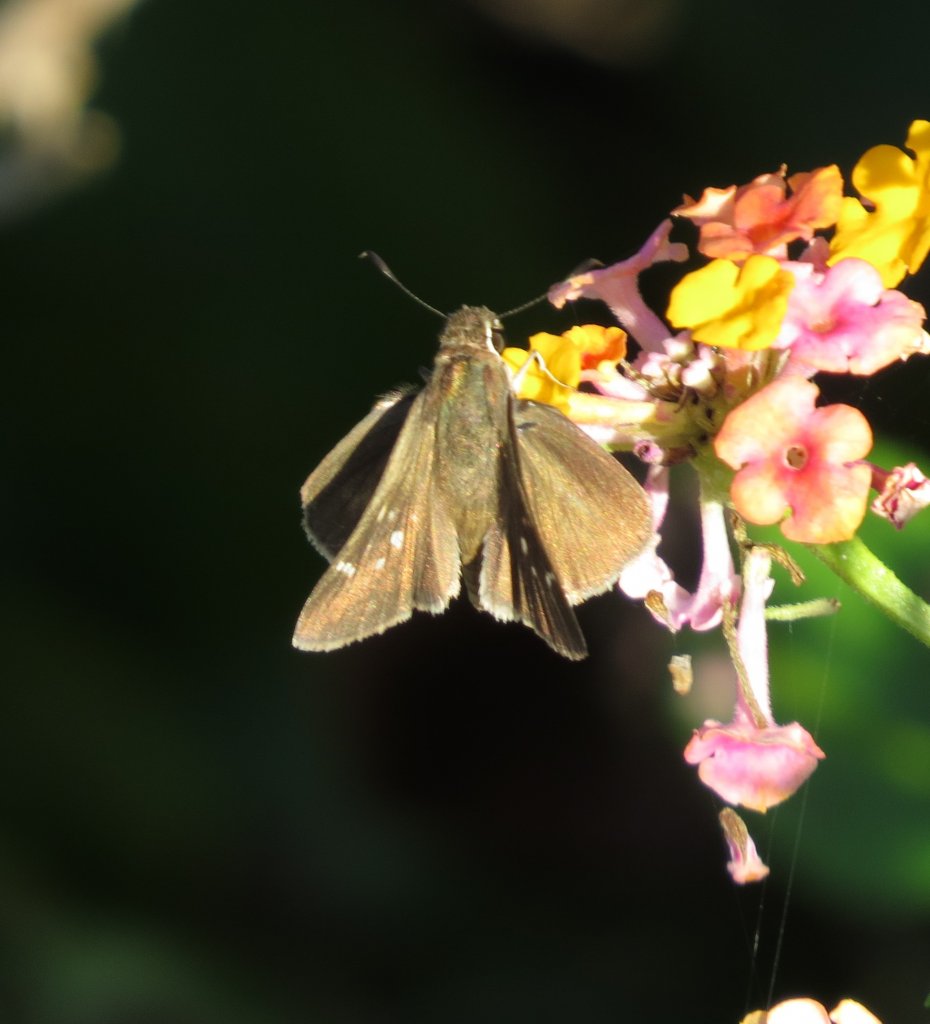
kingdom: Animalia
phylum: Arthropoda
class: Insecta
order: Lepidoptera
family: Hesperiidae
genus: Panoquina
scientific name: Panoquina ocola
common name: Ocola Skipper
